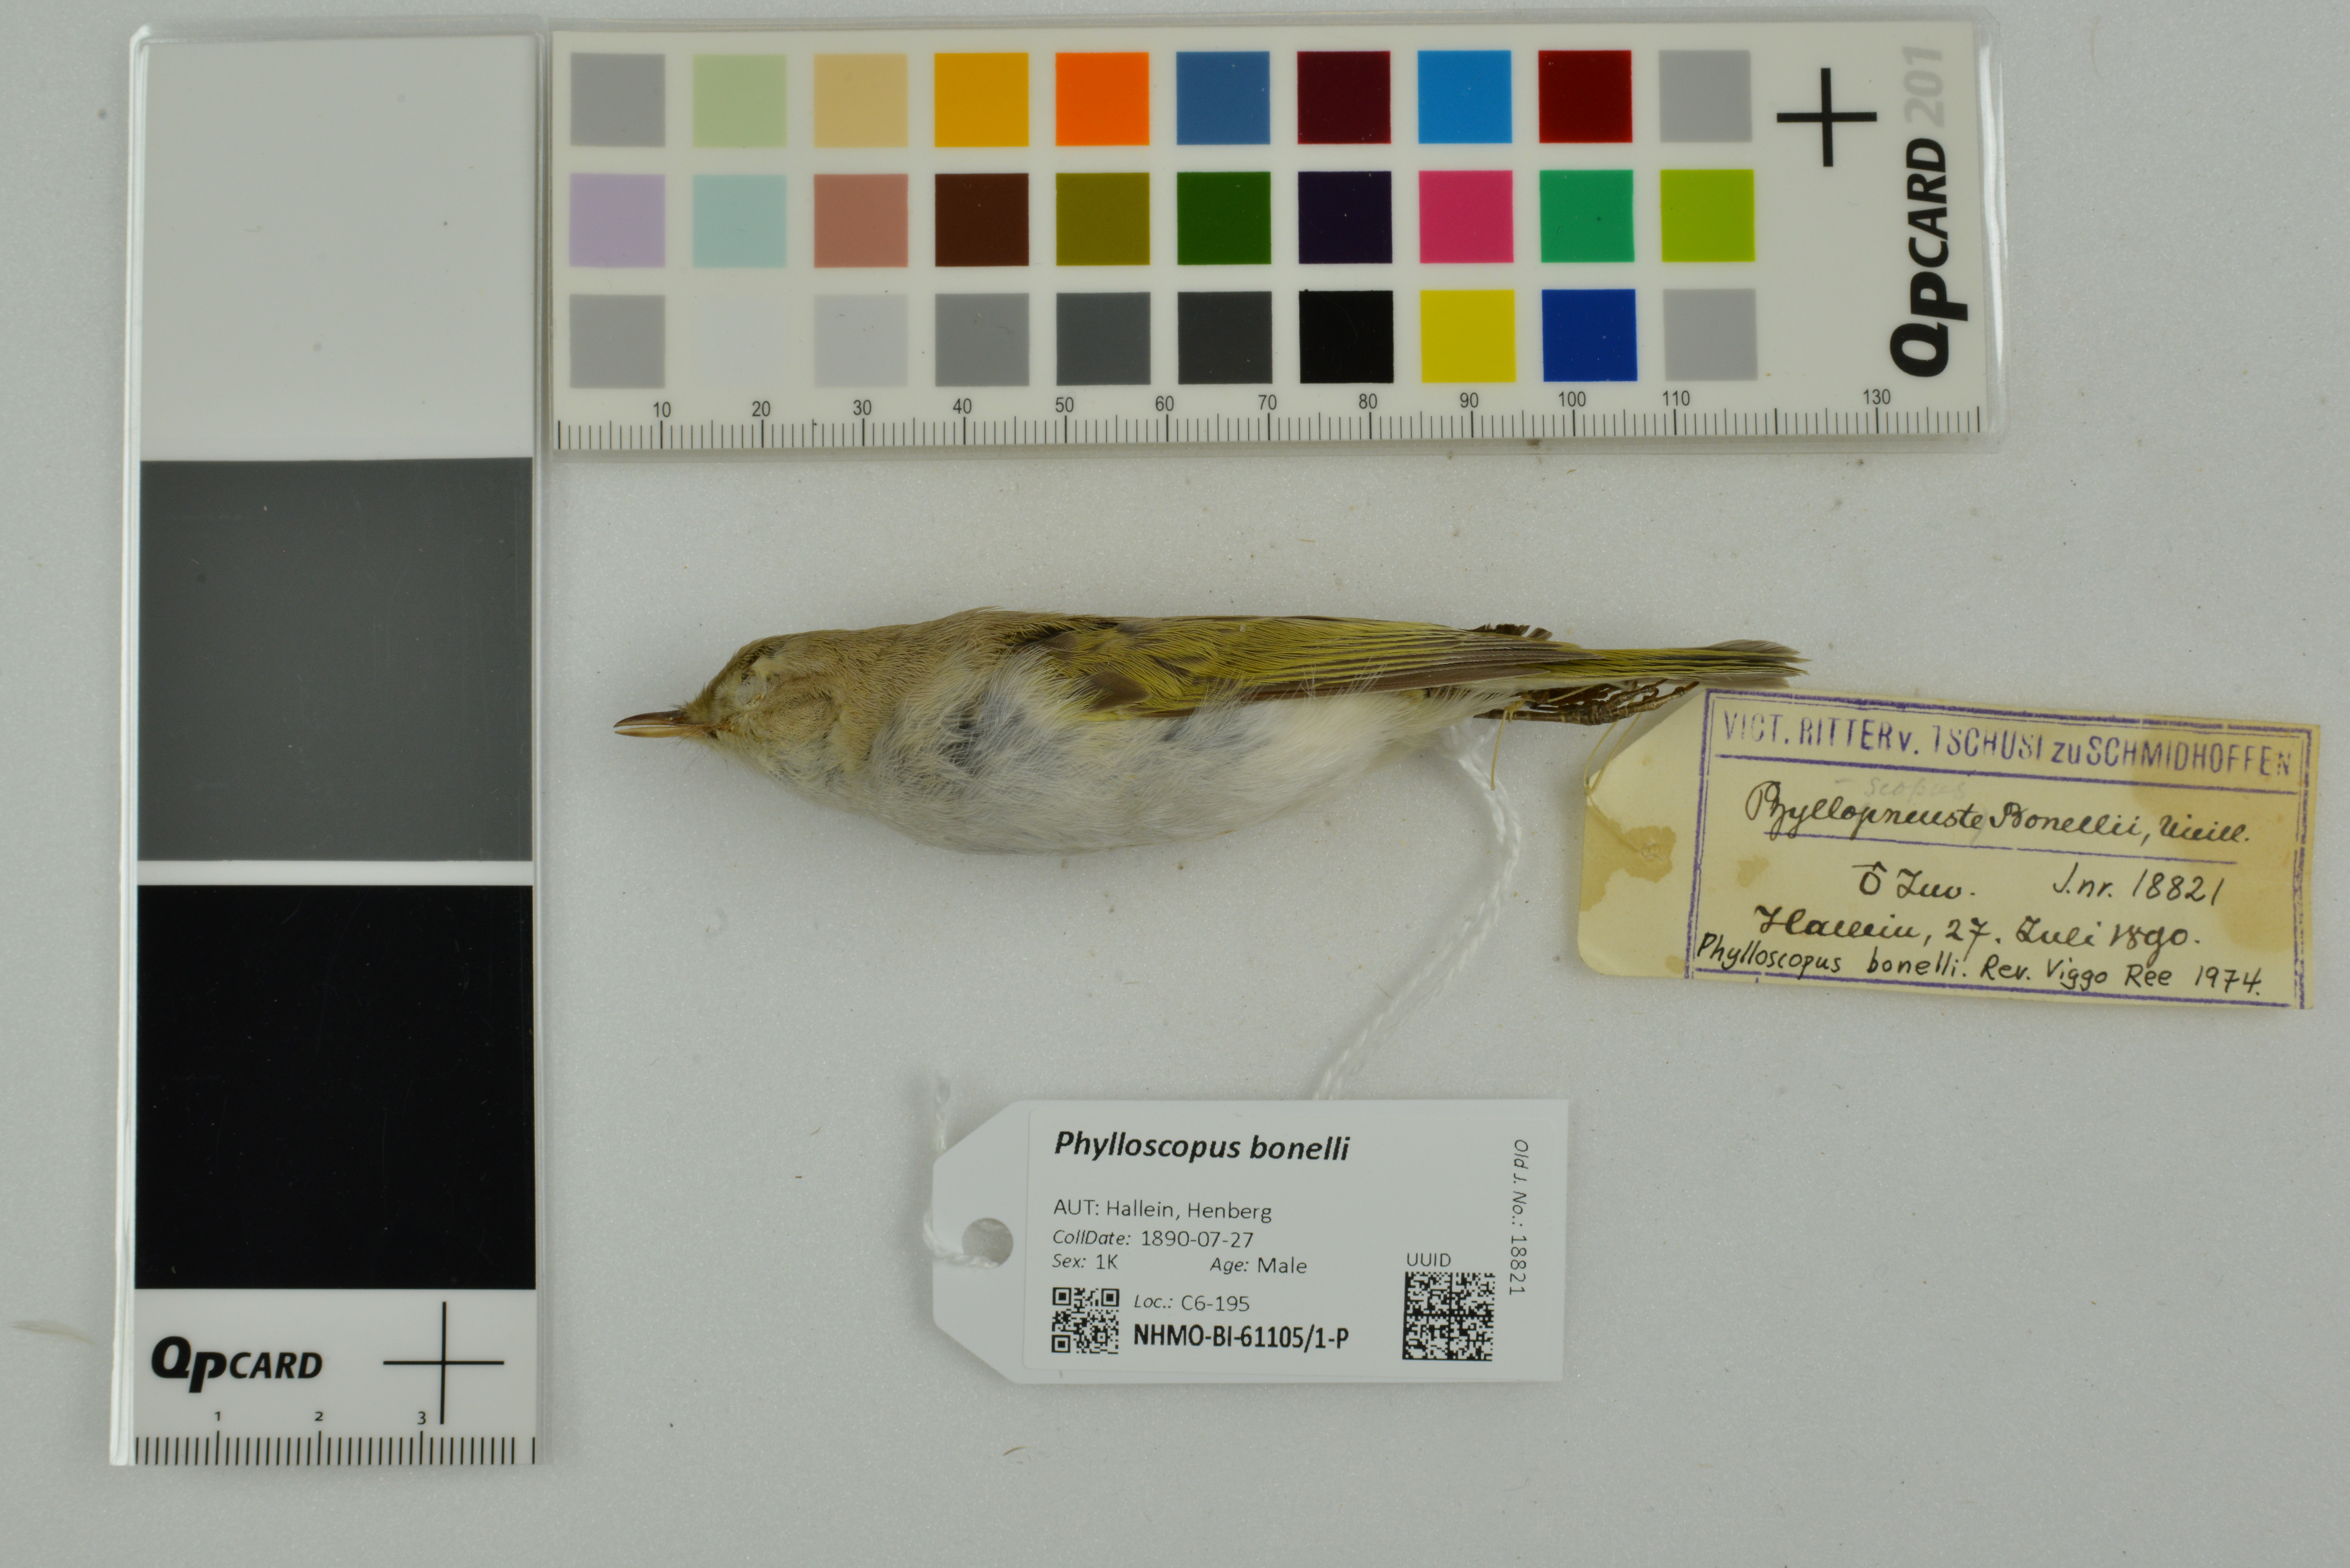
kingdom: Animalia
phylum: Chordata
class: Aves
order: Passeriformes
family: Phylloscopidae
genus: Phylloscopus
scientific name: Phylloscopus bonelli
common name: Western bonelli's warbler
